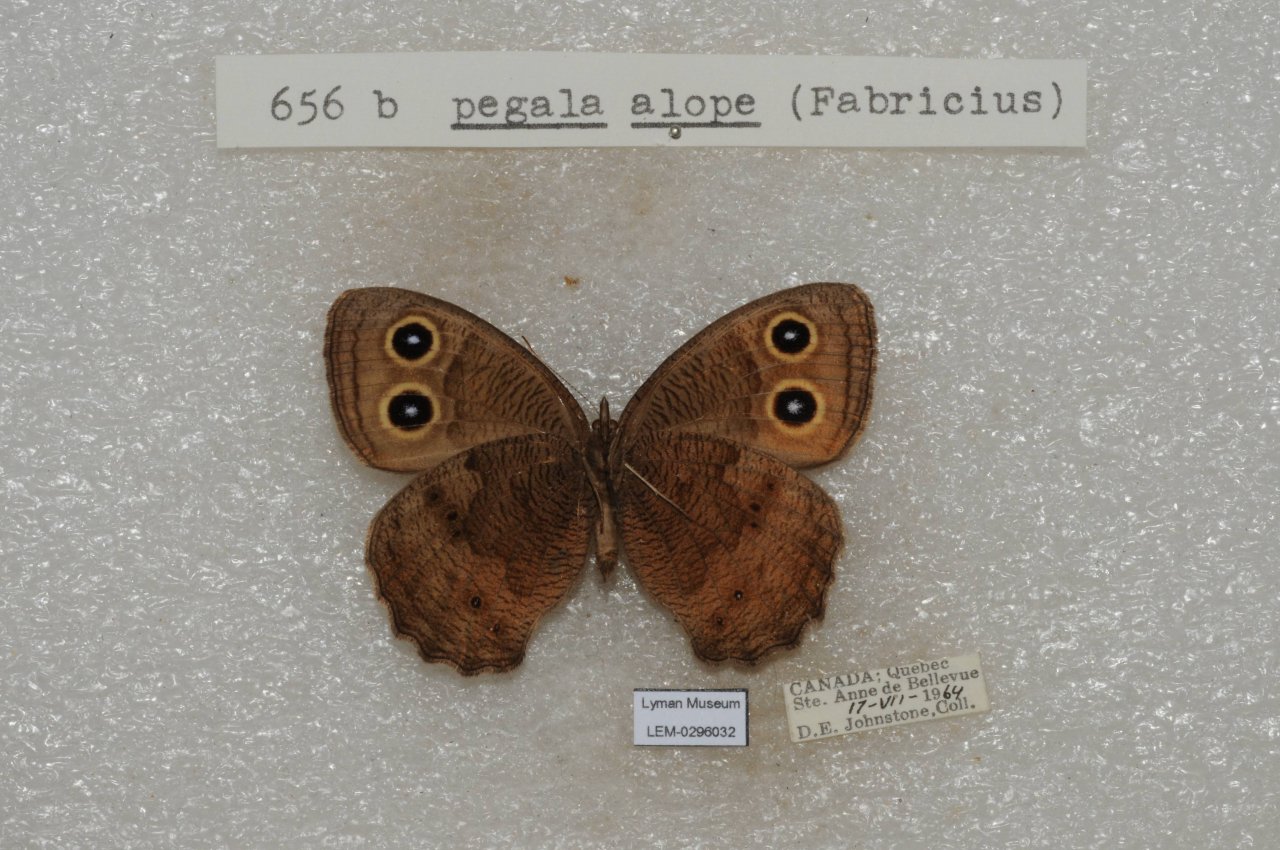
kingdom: Animalia
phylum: Arthropoda
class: Insecta
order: Lepidoptera
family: Nymphalidae
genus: Cercyonis
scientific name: Cercyonis pegala
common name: Common Wood-Nymph
